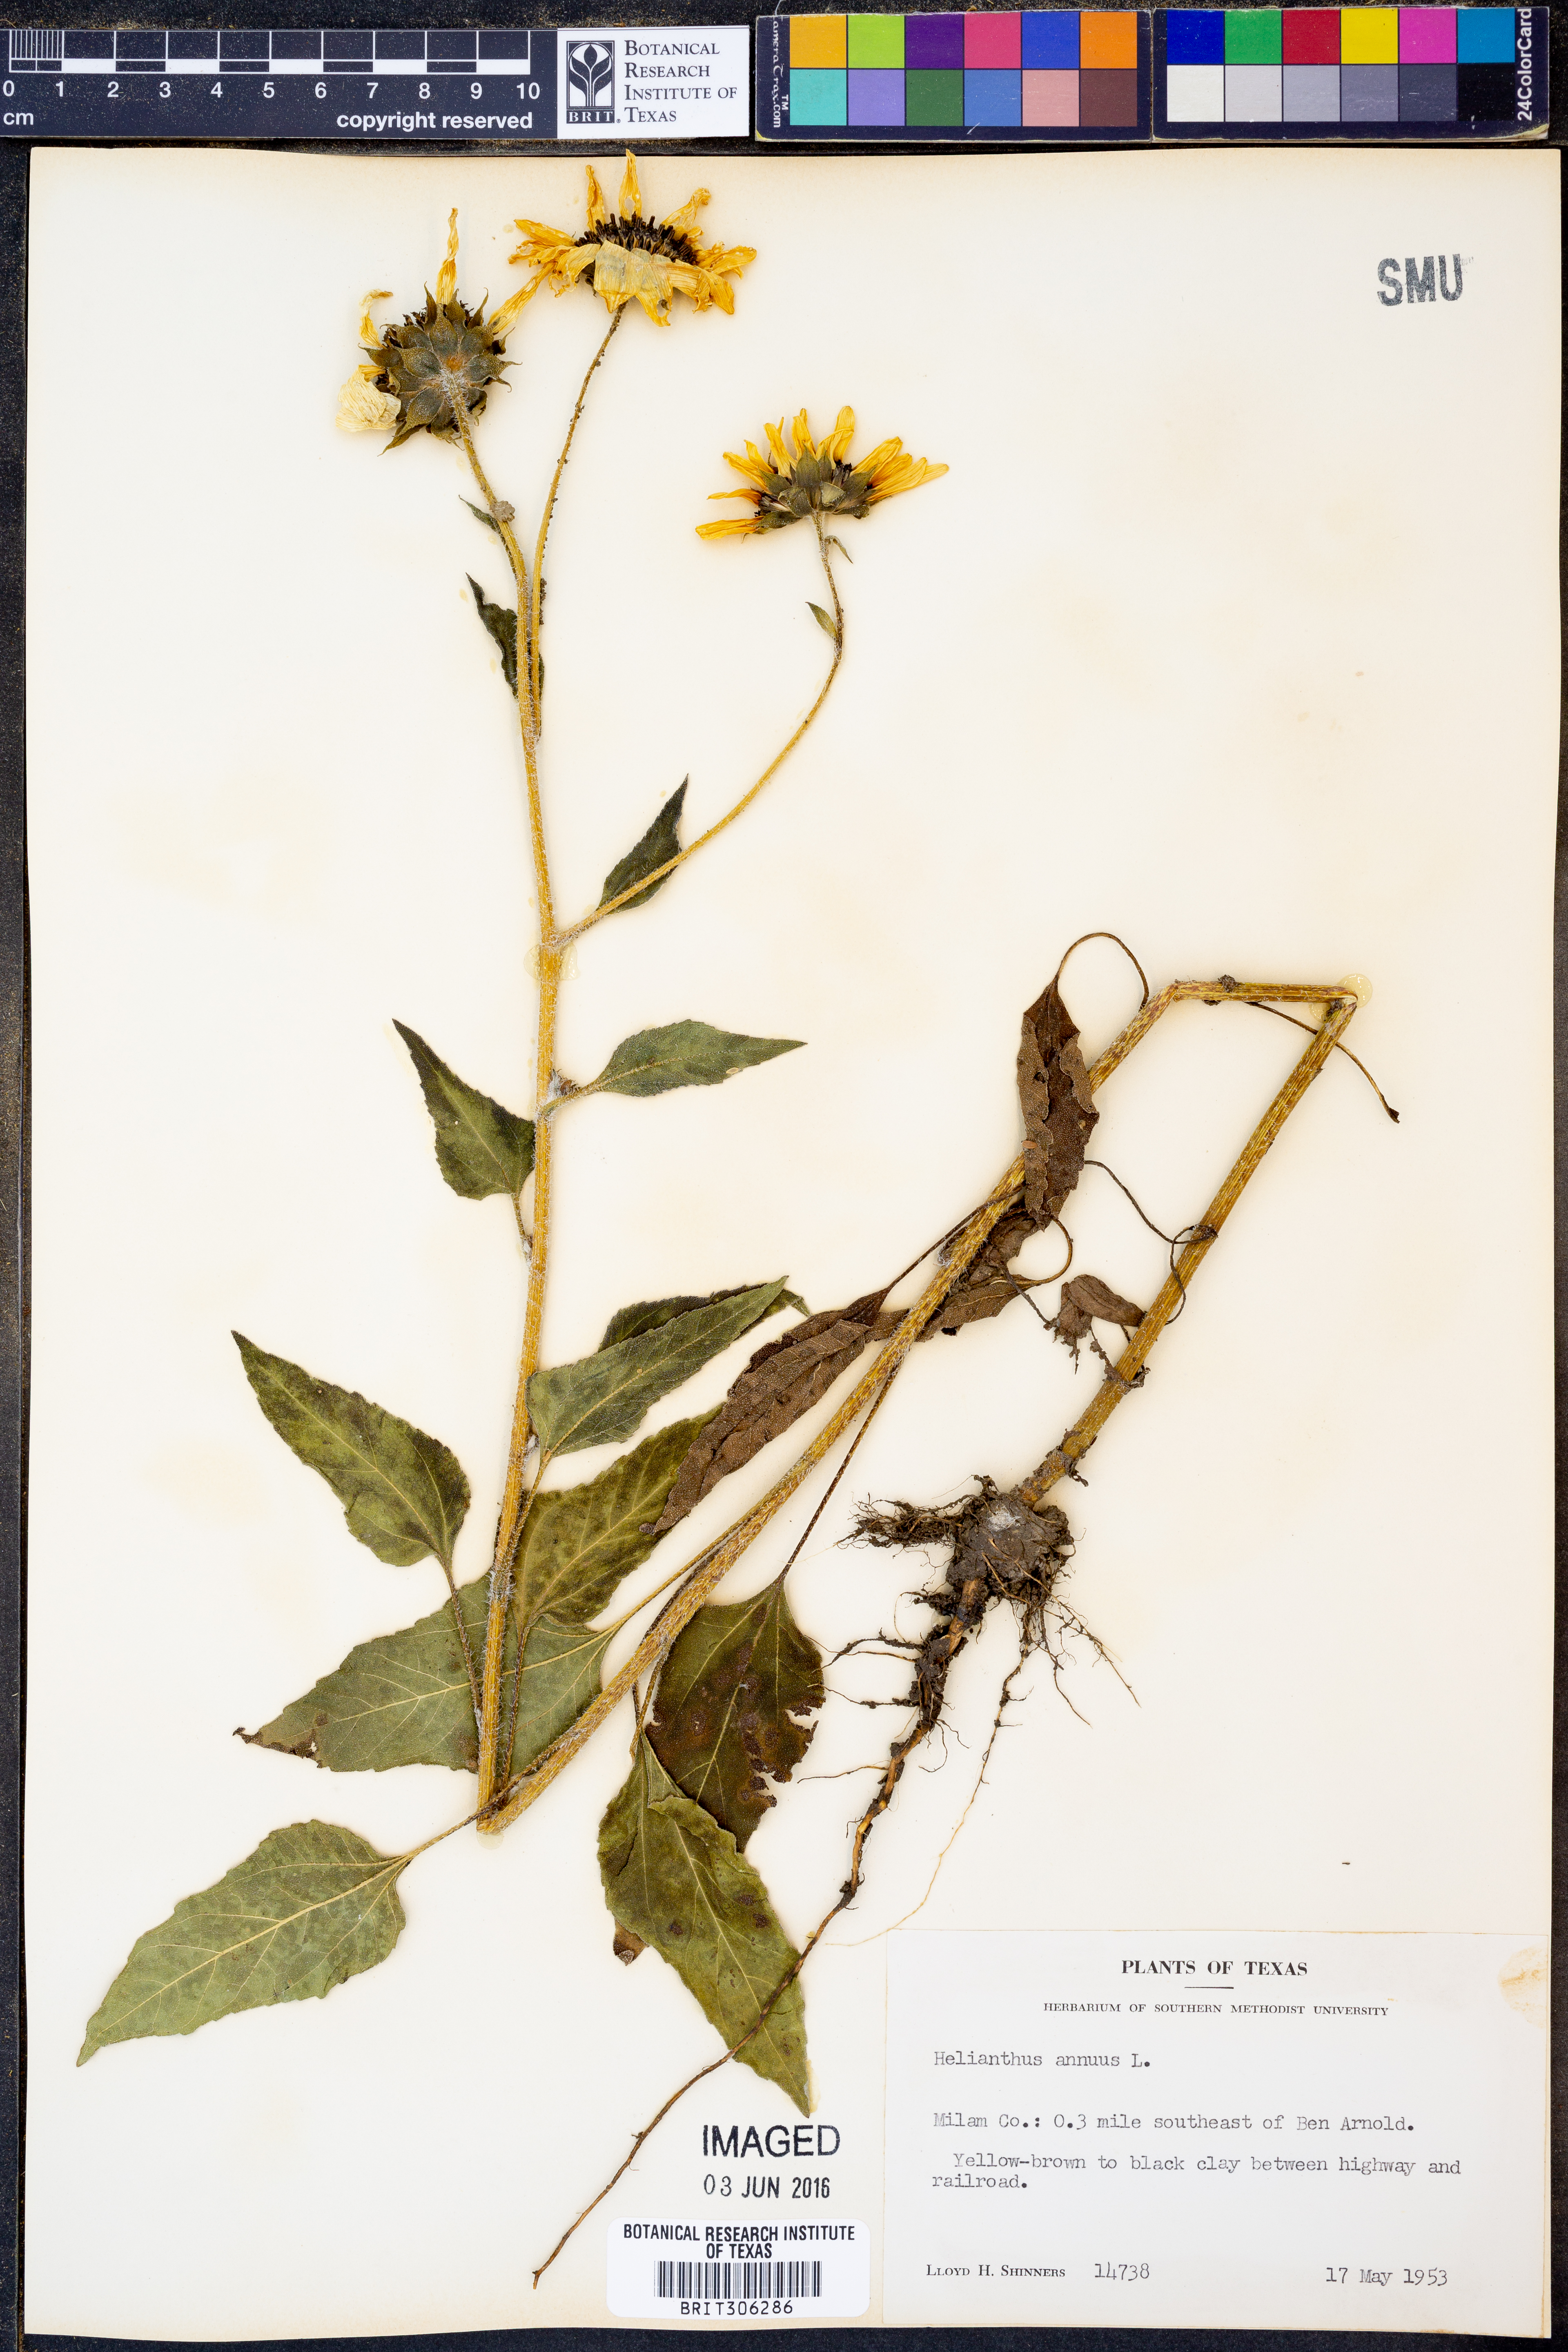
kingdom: Plantae
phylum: Tracheophyta
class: Magnoliopsida
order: Asterales
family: Asteraceae
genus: Helianthus
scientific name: Helianthus annuus
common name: Sunflower
